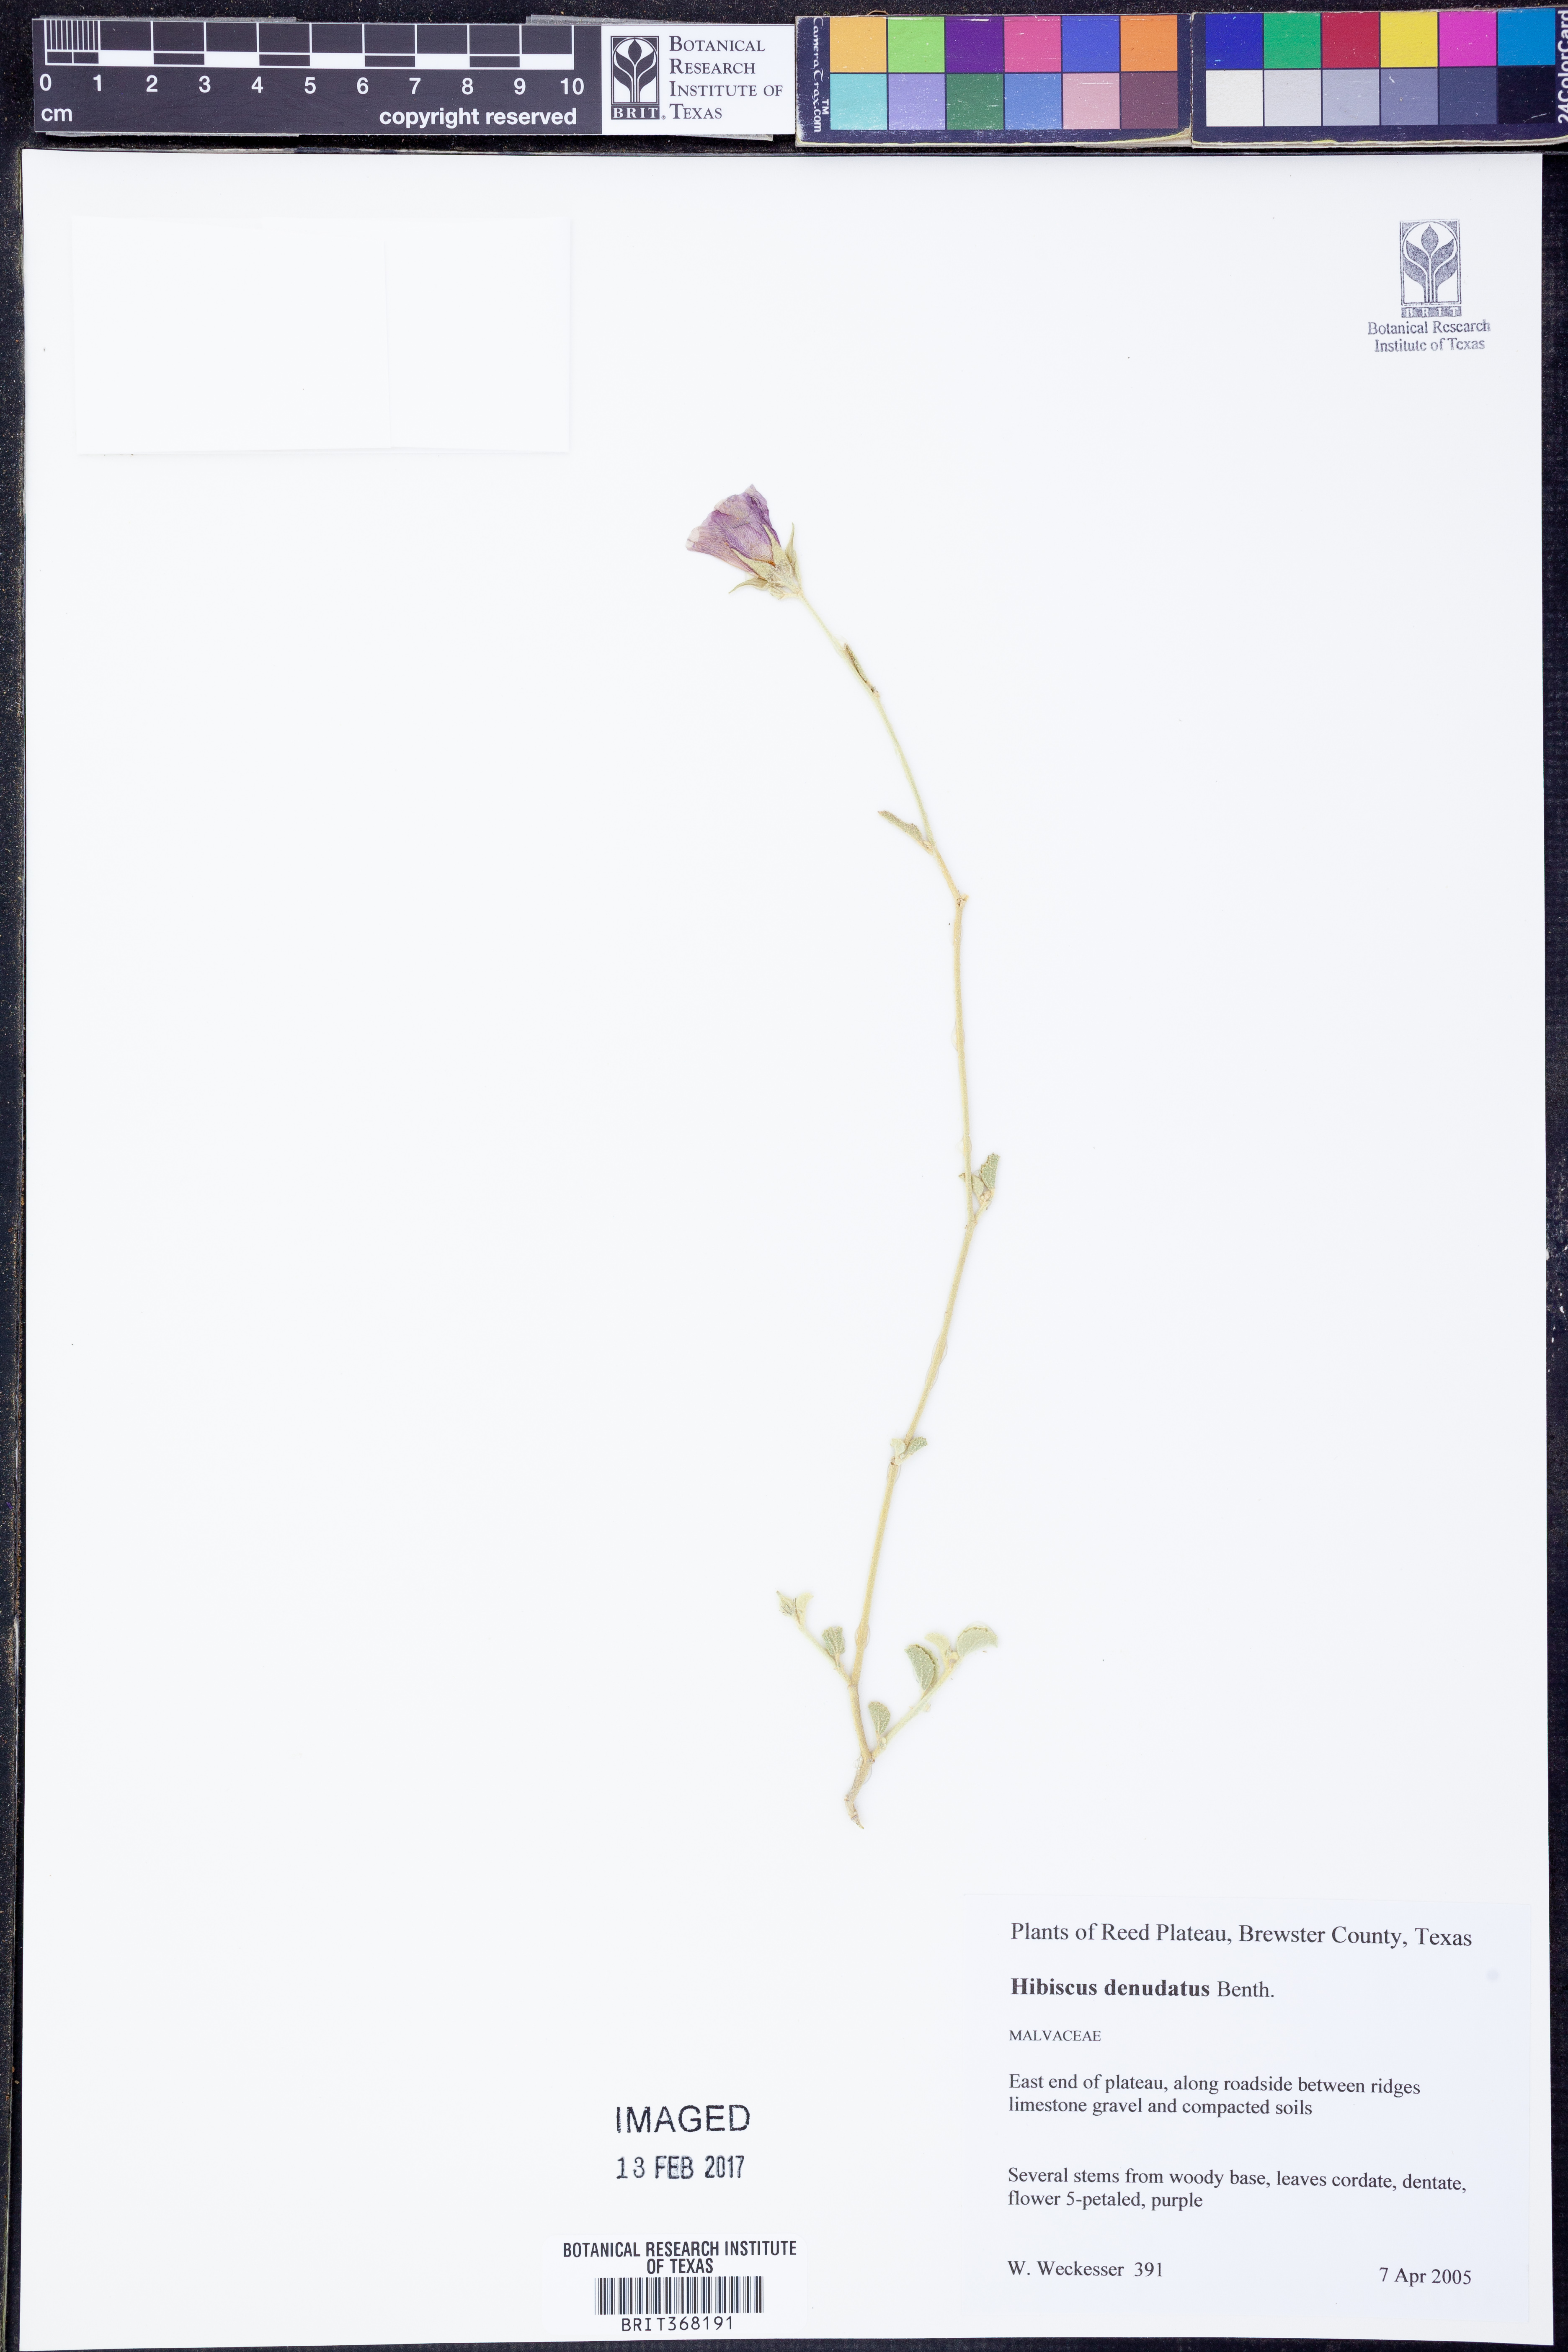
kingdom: Plantae
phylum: Tracheophyta
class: Magnoliopsida
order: Malvales
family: Malvaceae
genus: Hibiscus
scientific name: Hibiscus denudatus
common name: Paleface
